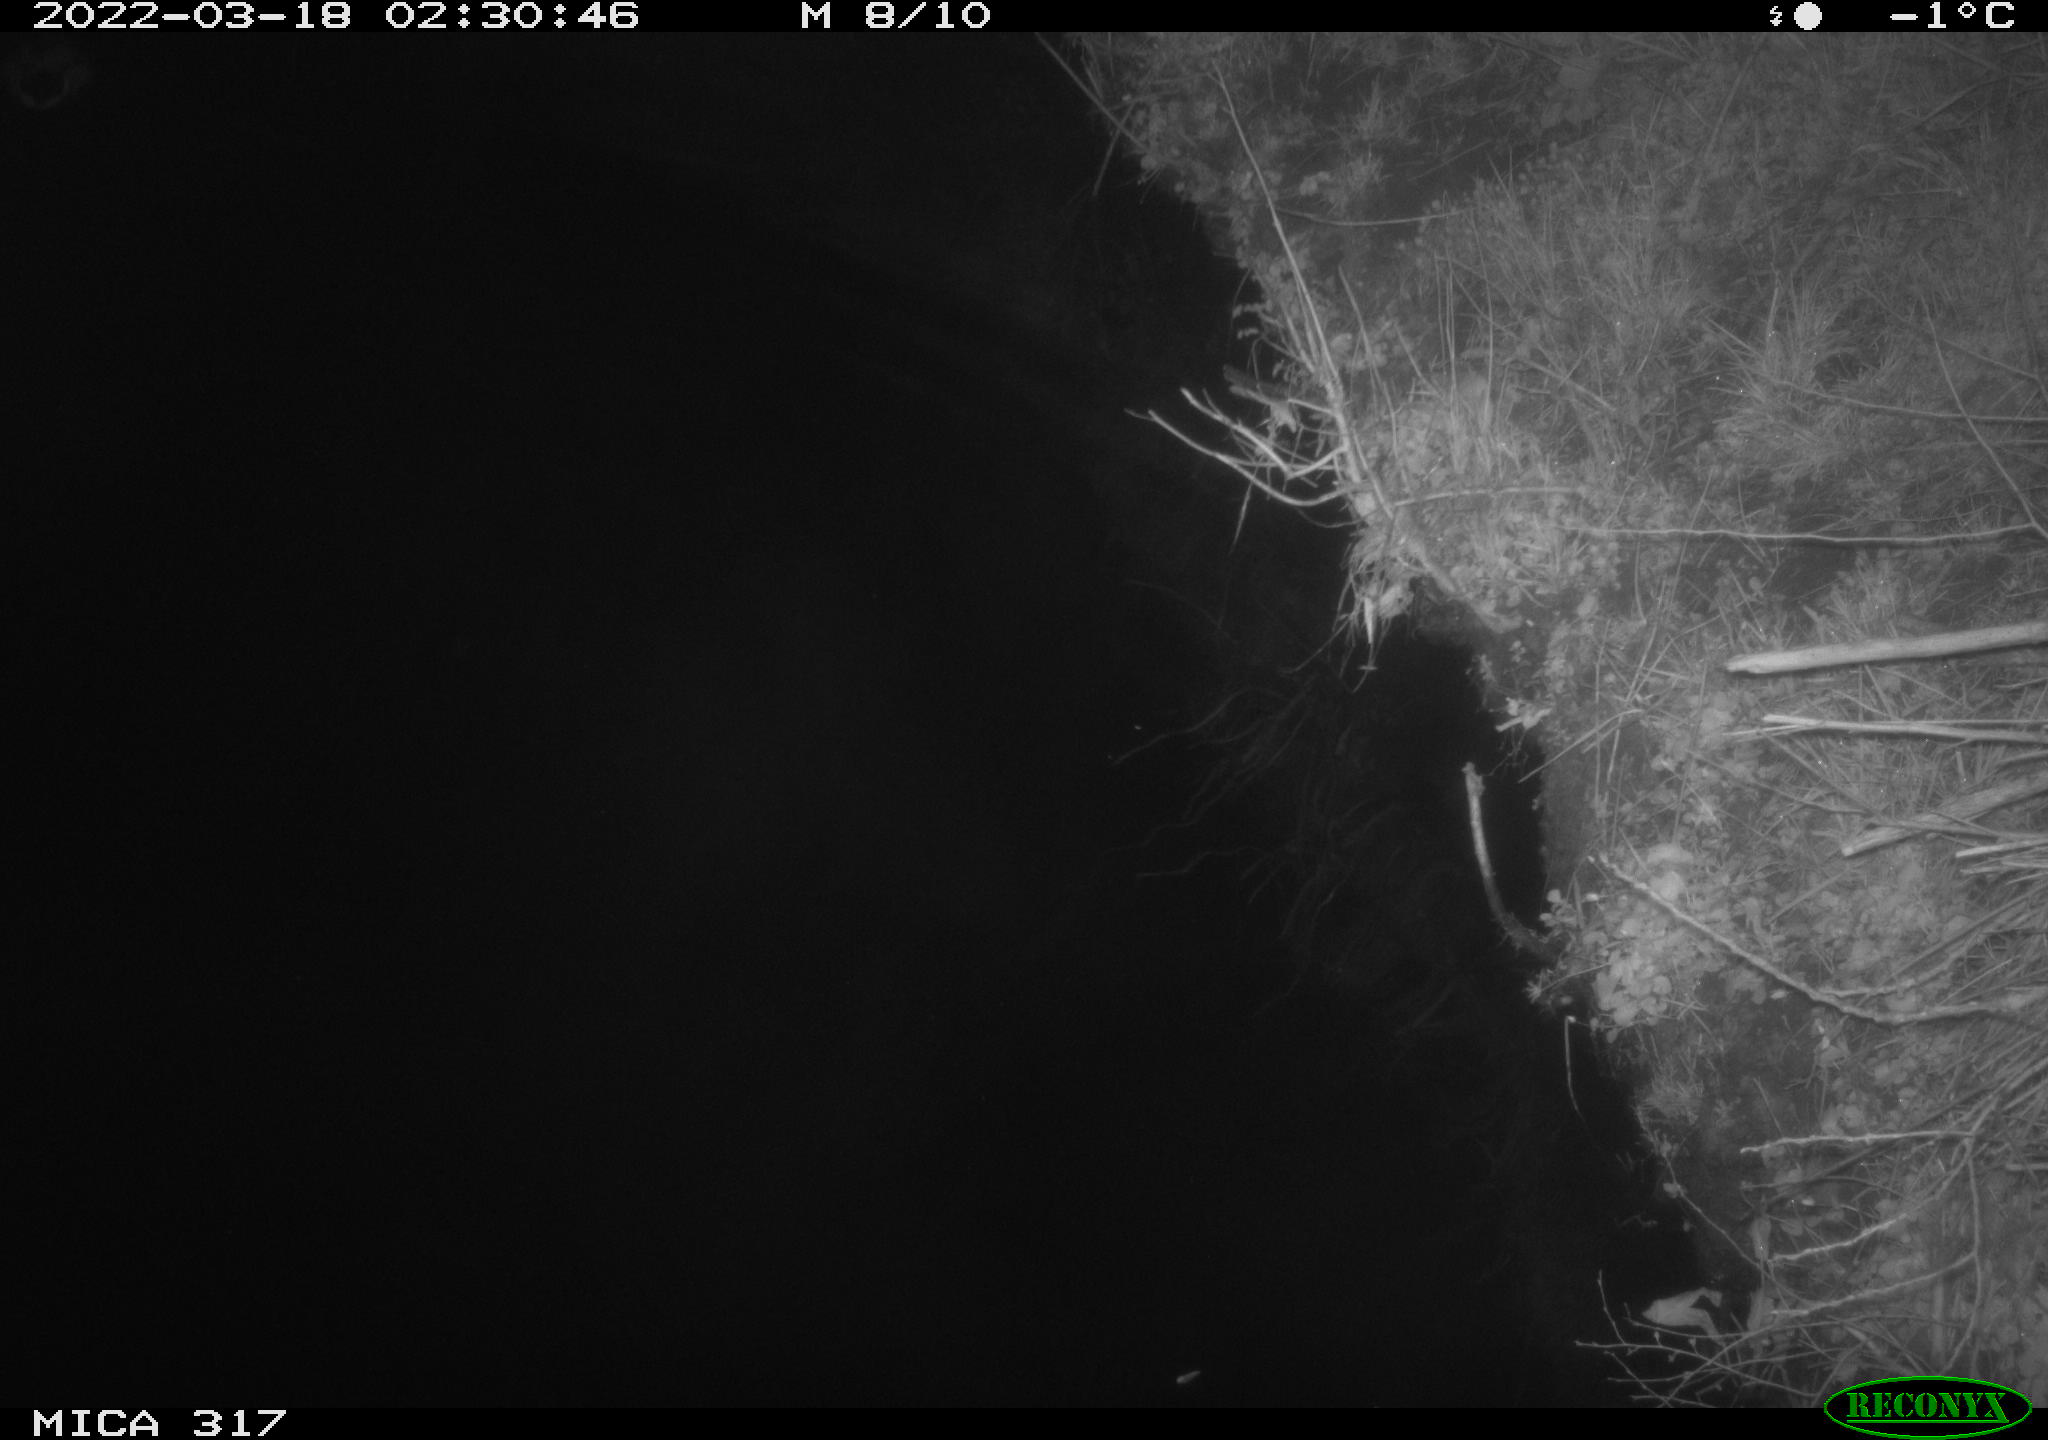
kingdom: Animalia
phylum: Chordata
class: Aves
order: Anseriformes
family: Anatidae
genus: Anas
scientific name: Anas platyrhynchos
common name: Mallard
